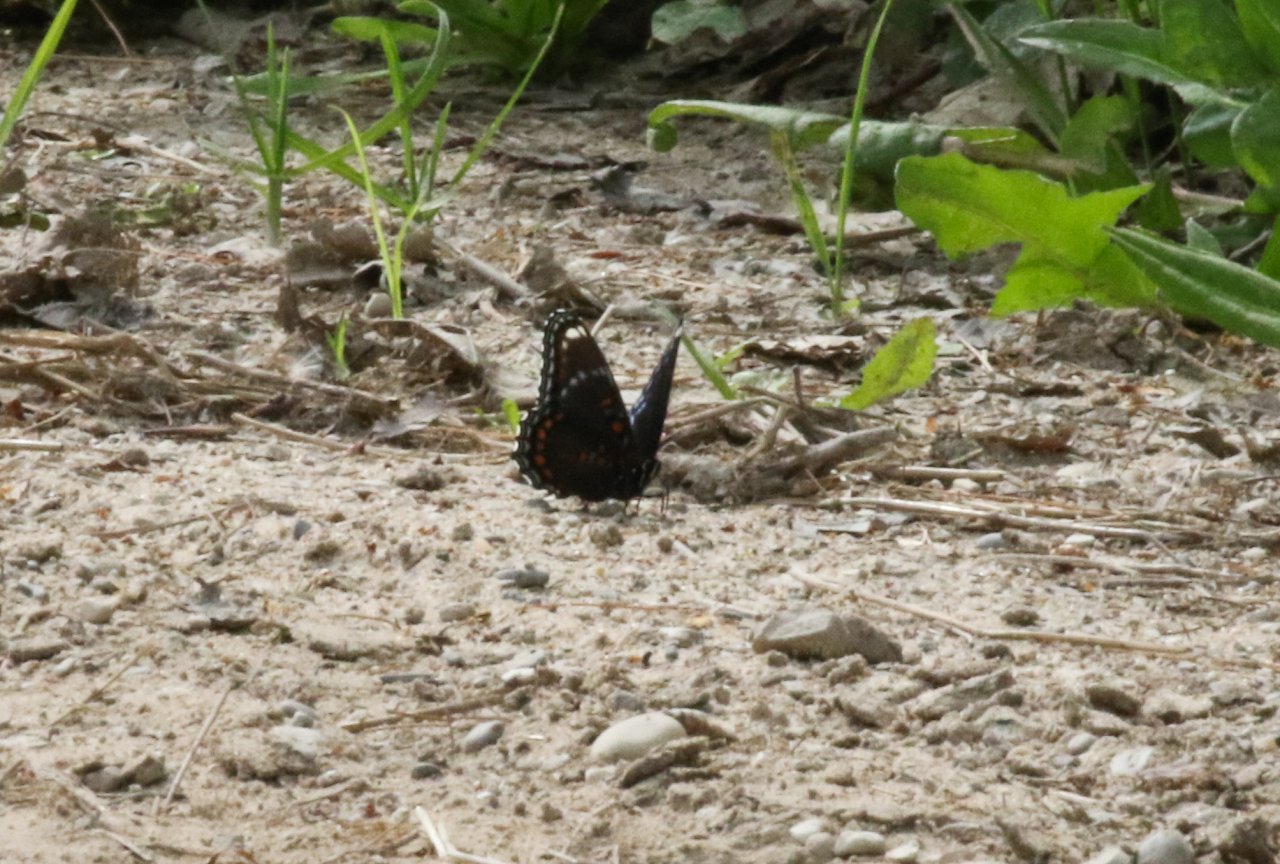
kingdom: Animalia
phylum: Arthropoda
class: Insecta
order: Lepidoptera
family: Nymphalidae
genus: Limenitis
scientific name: Limenitis astyanax
